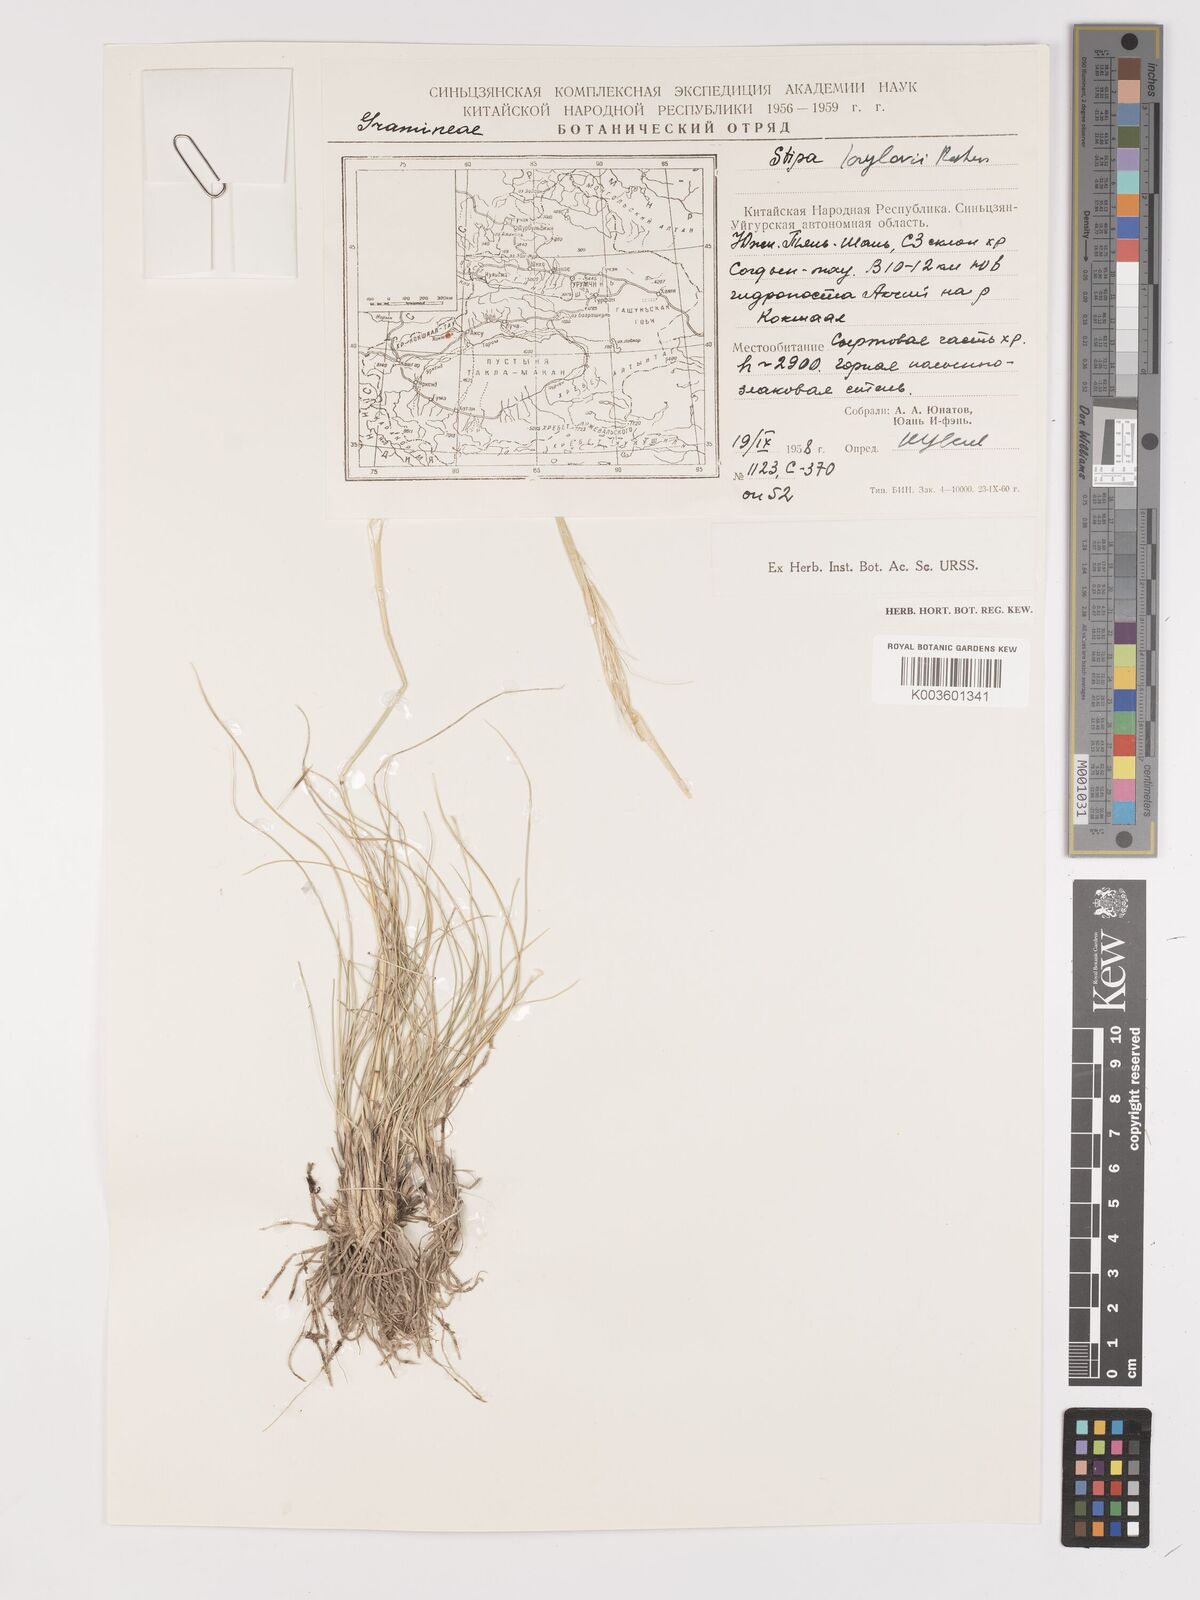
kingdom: Plantae
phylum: Tracheophyta
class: Liliopsida
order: Poales
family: Poaceae
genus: Stipa
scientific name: Stipa krylovii
